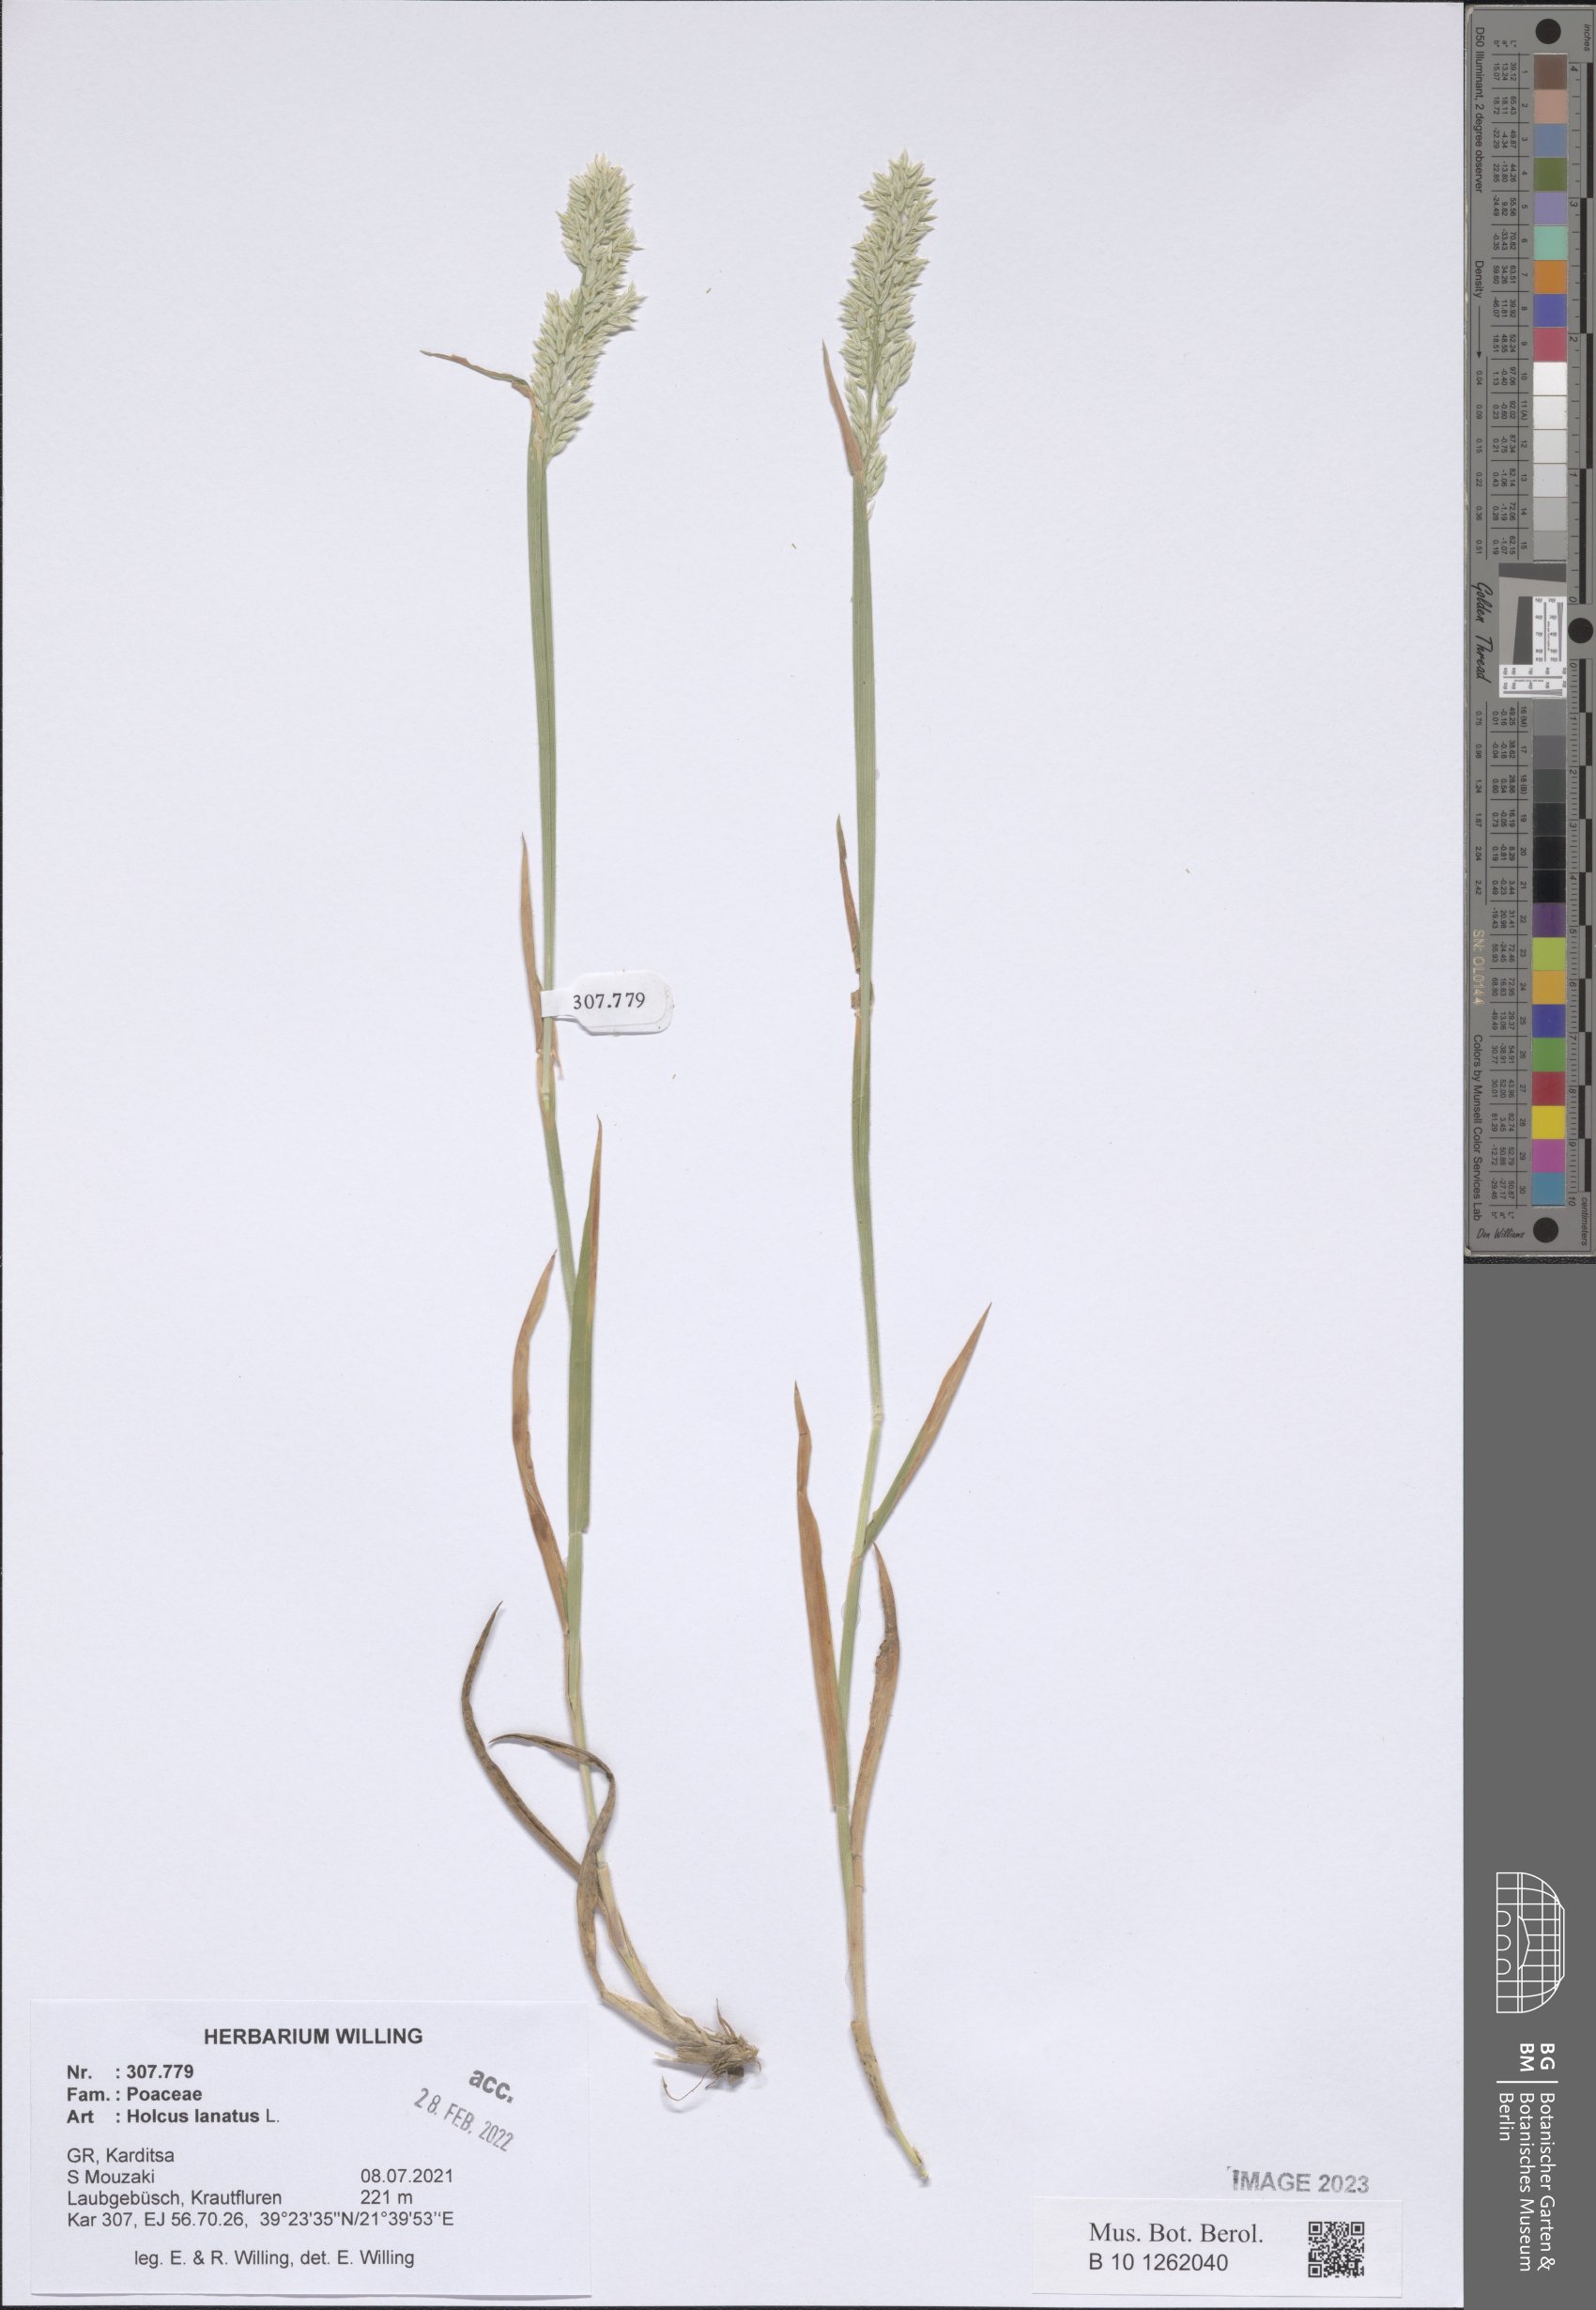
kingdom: Plantae
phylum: Tracheophyta
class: Liliopsida
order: Poales
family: Poaceae
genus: Holcus
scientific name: Holcus lanatus
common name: Yorkshire-fog
